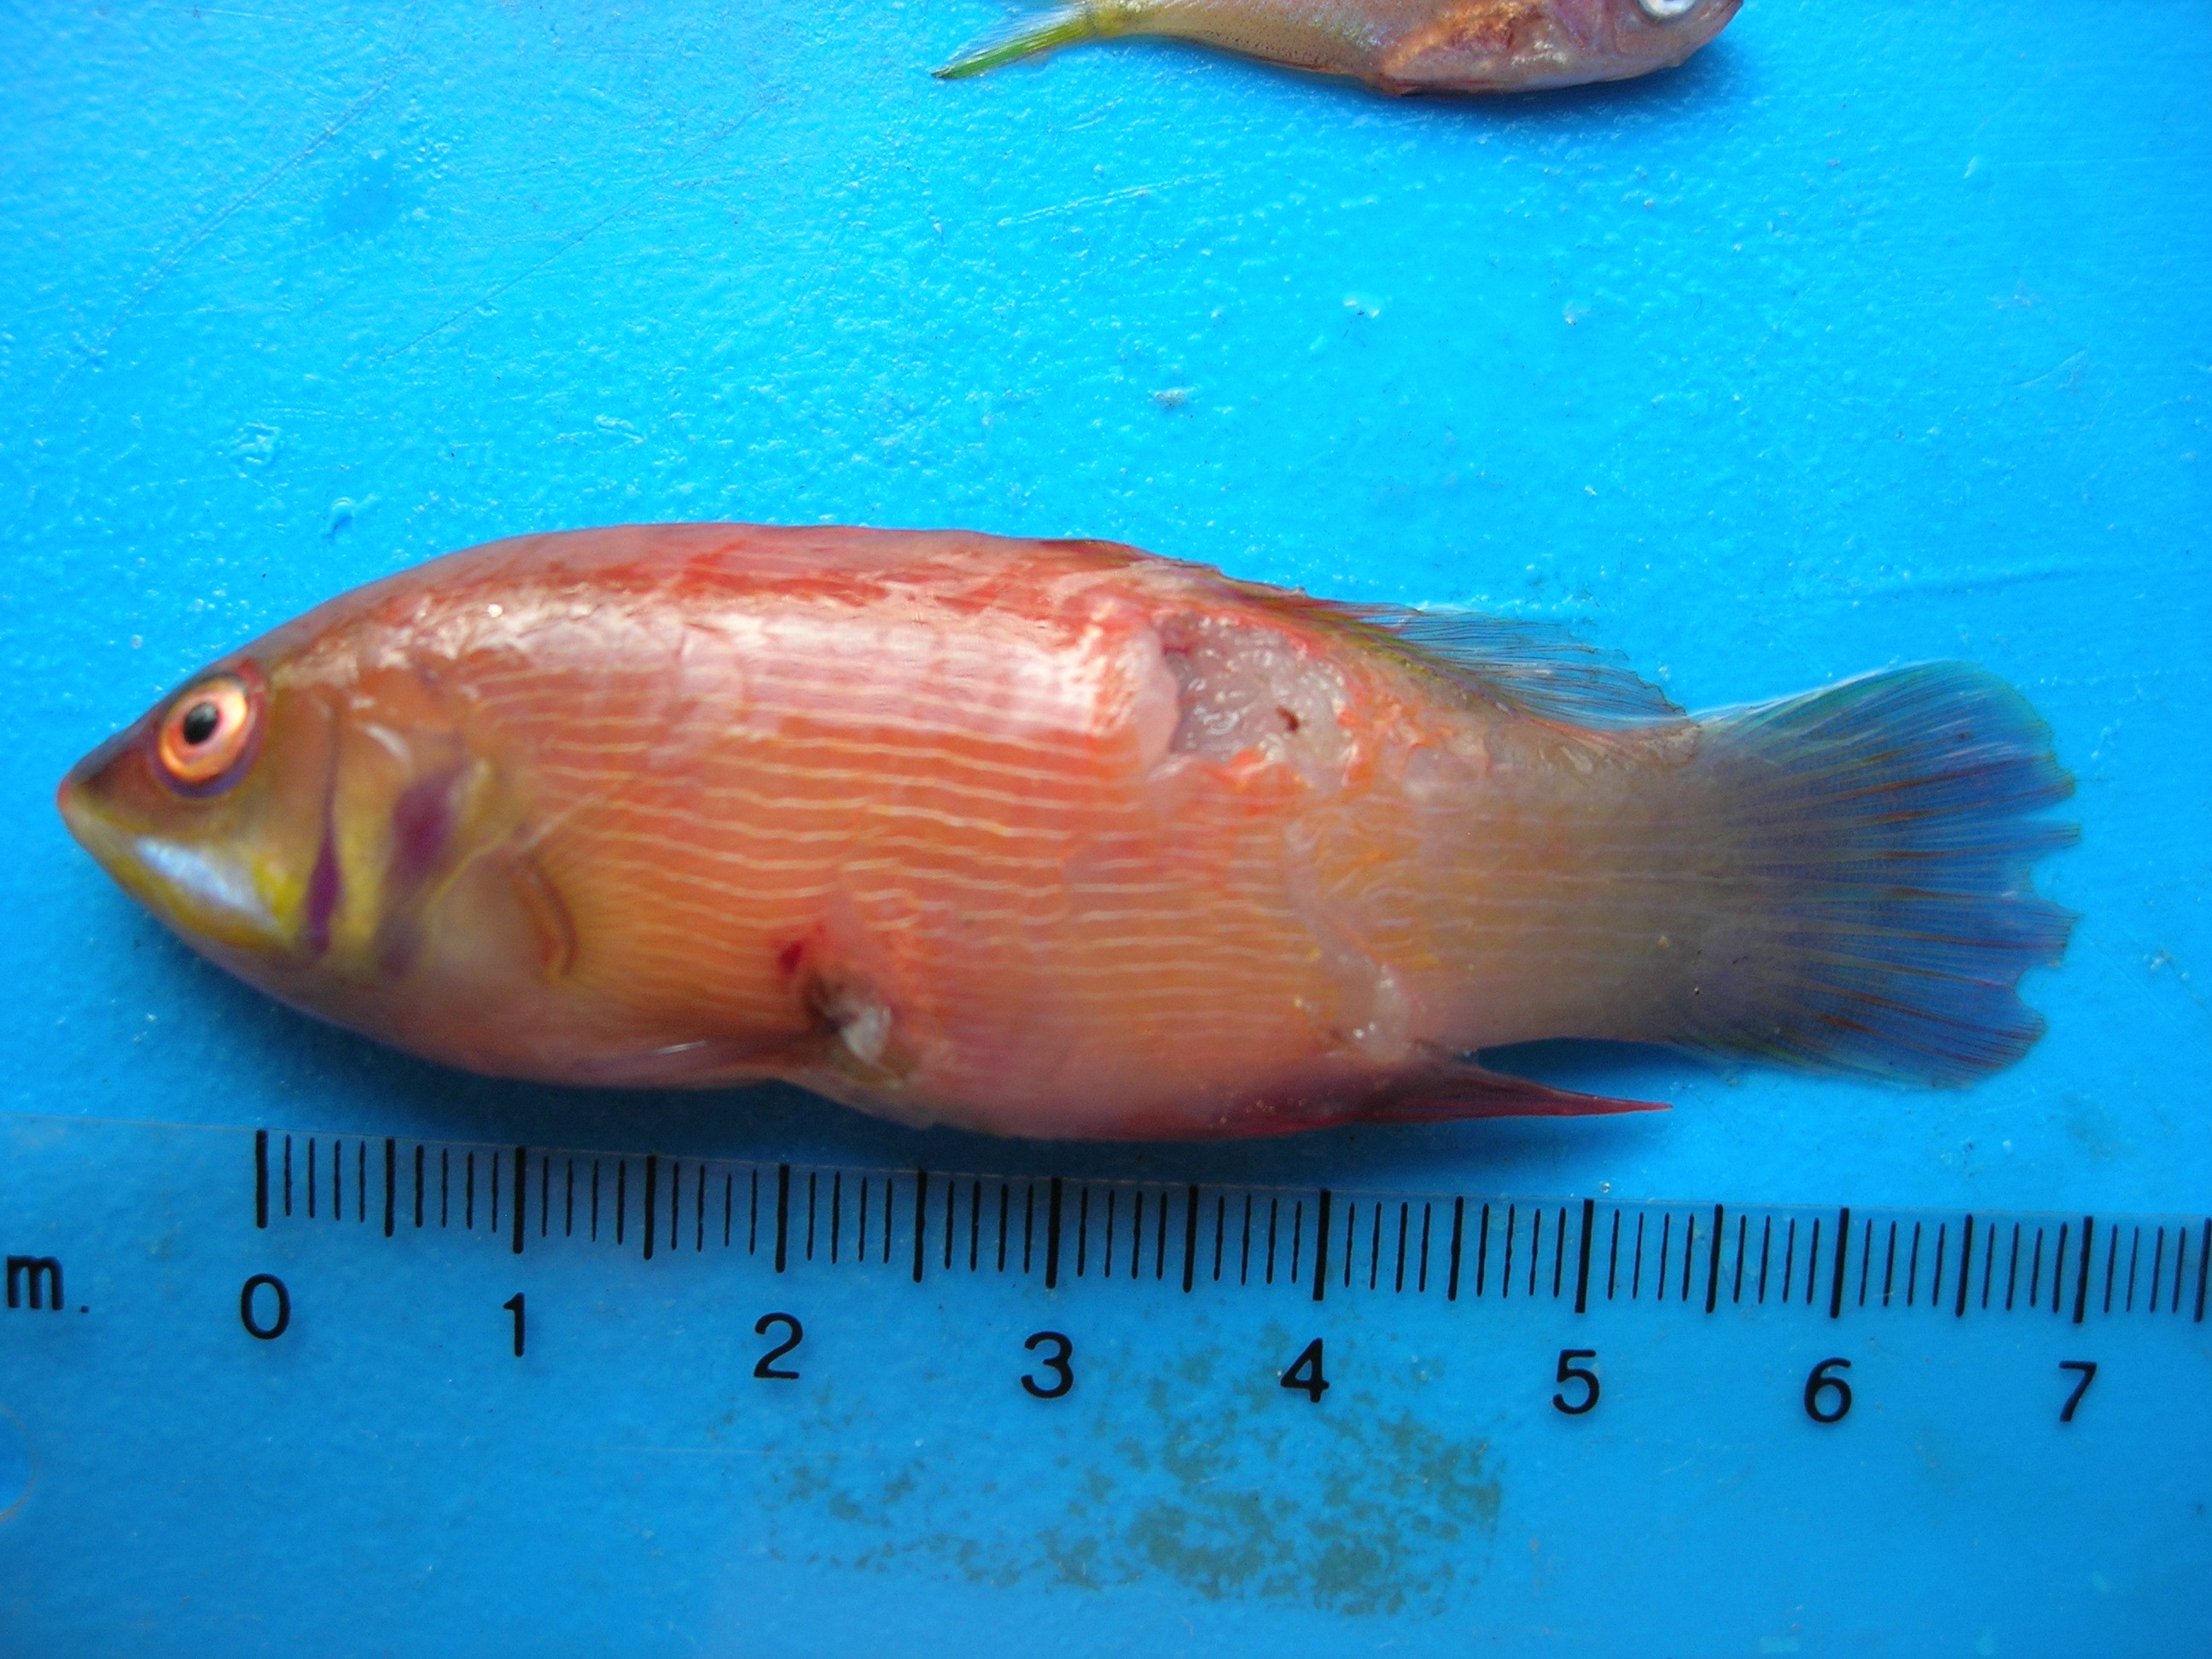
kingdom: Animalia
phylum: Chordata
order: Perciformes
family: Labridae
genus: Pseudocheilinus
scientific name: Pseudocheilinus evanidus
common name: Disappearing wrasse
